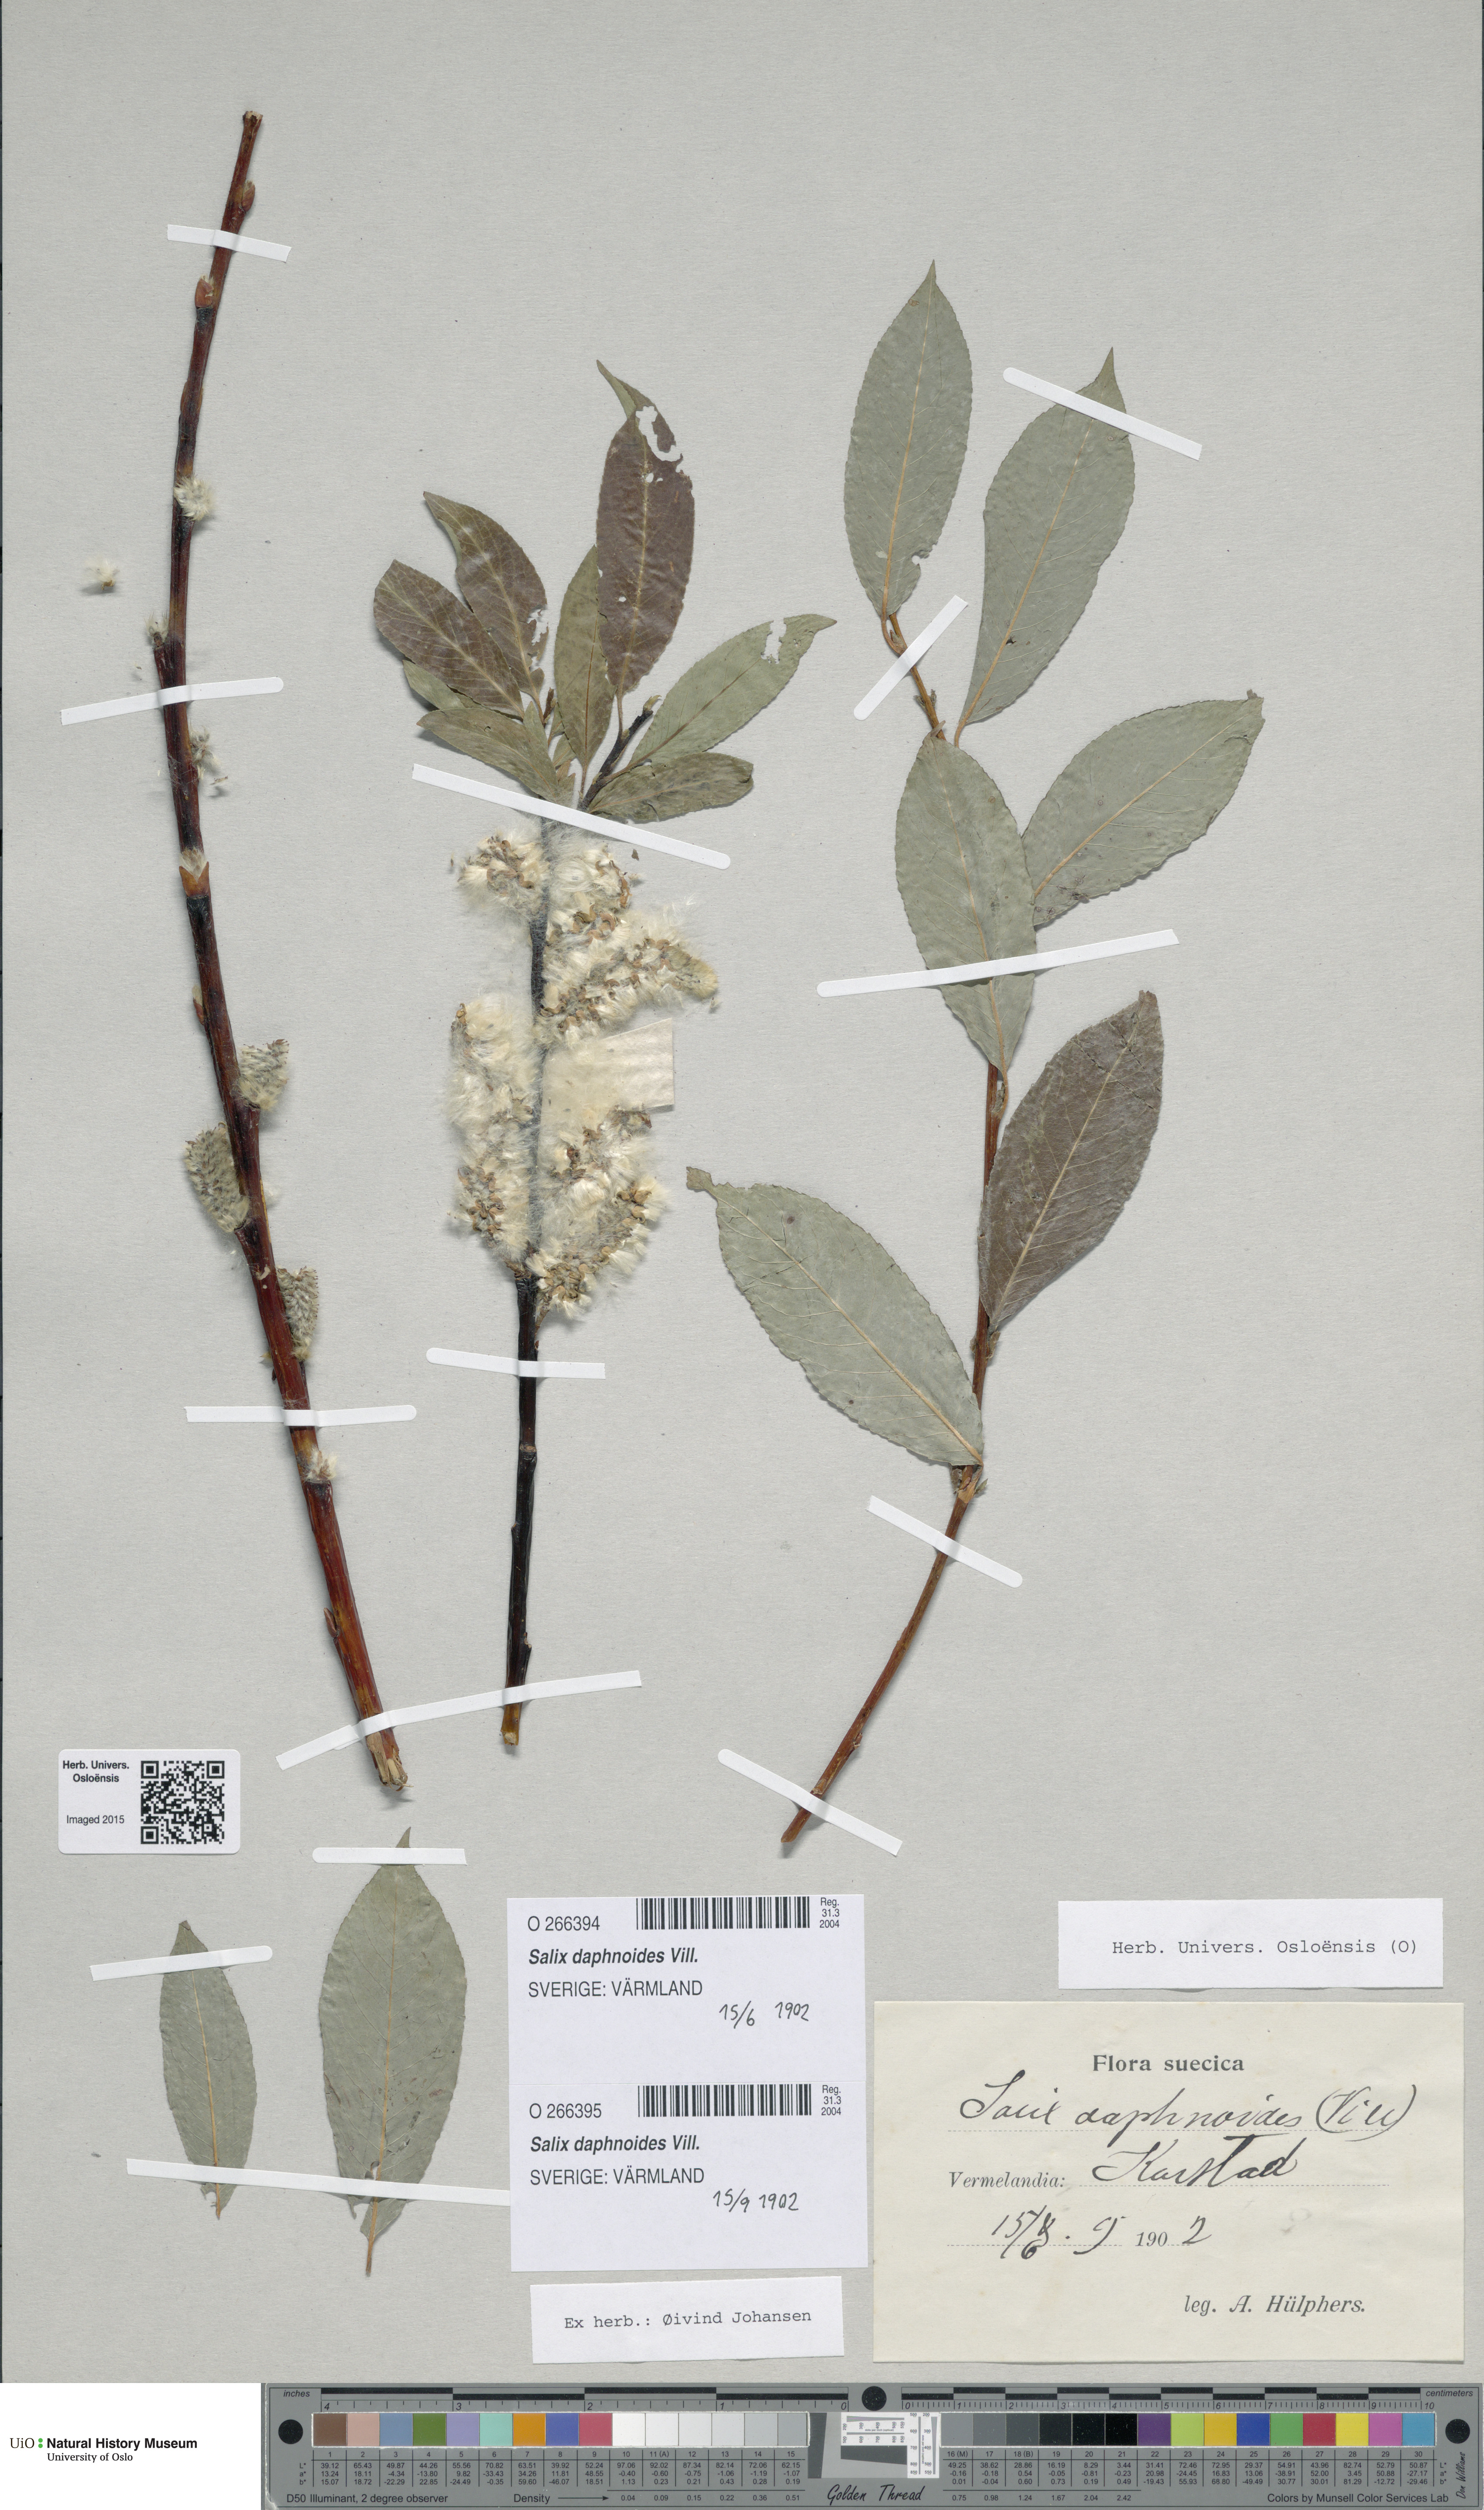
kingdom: Plantae
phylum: Tracheophyta
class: Magnoliopsida
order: Malpighiales
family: Salicaceae
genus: Salix
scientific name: Salix daphnoides
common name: European violet-willow
